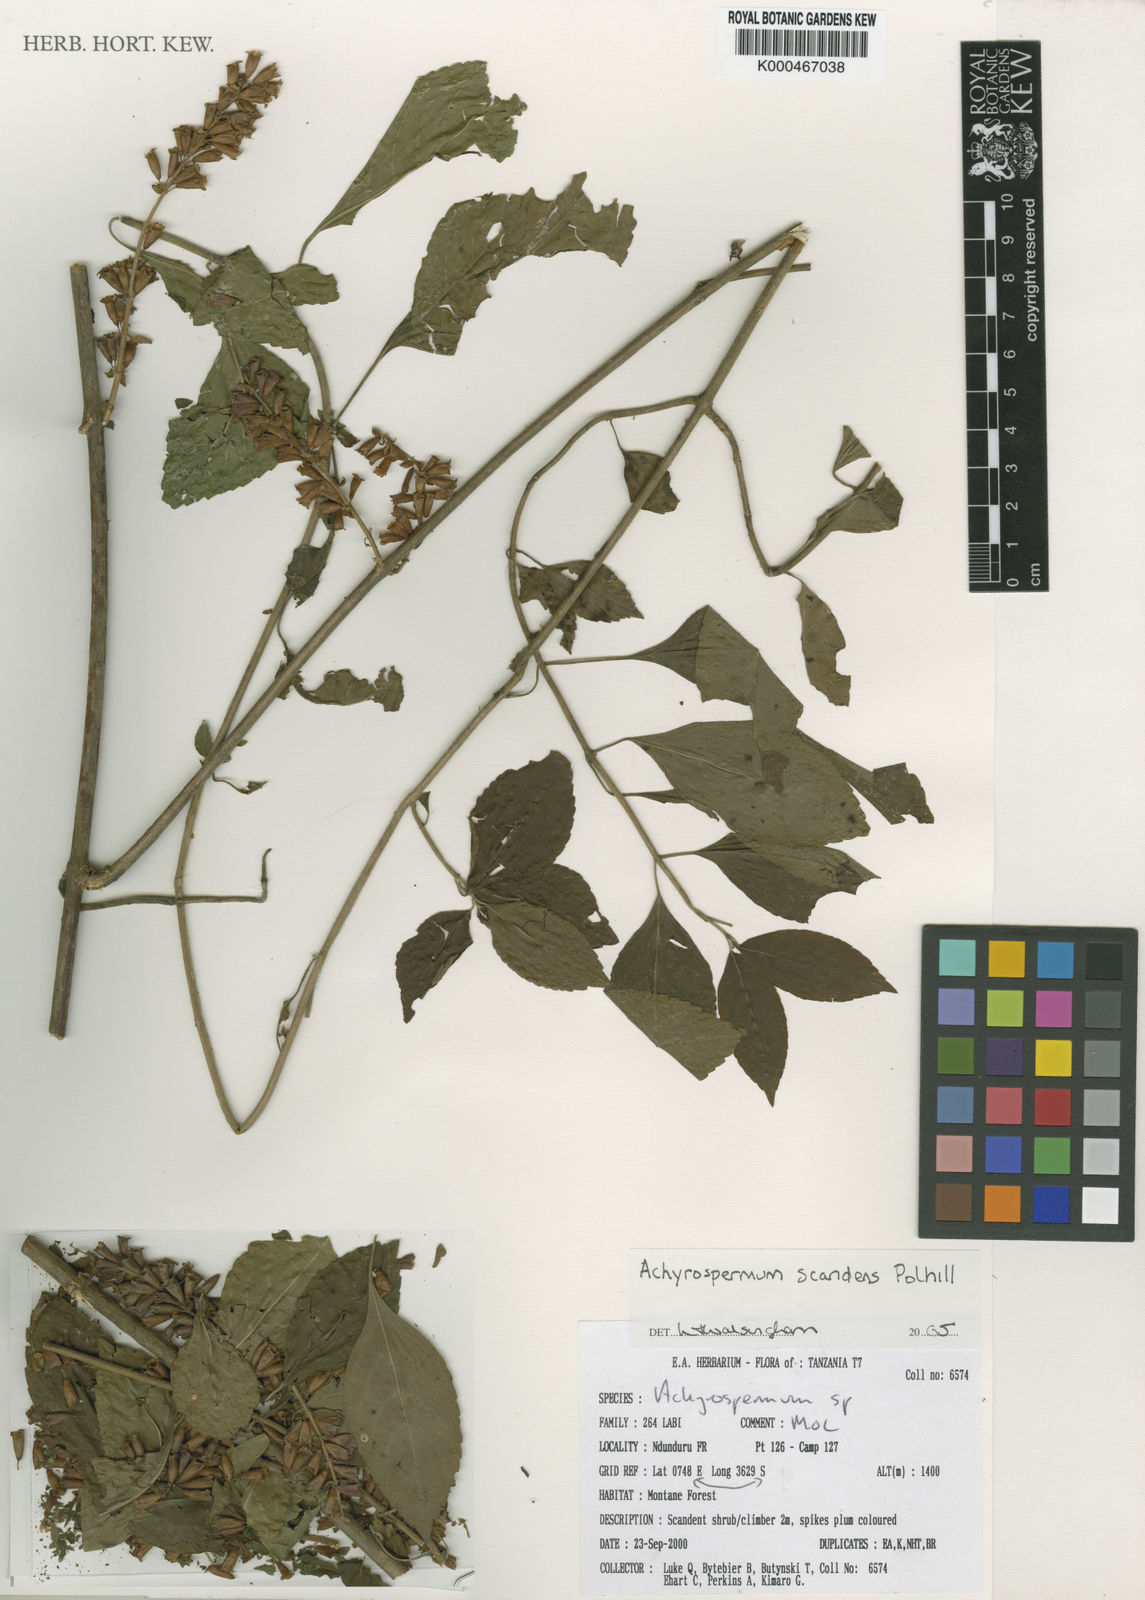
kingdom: Plantae
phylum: Tracheophyta
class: Magnoliopsida
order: Lamiales
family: Lamiaceae
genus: Achyrospermum
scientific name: Achyrospermum scandens
